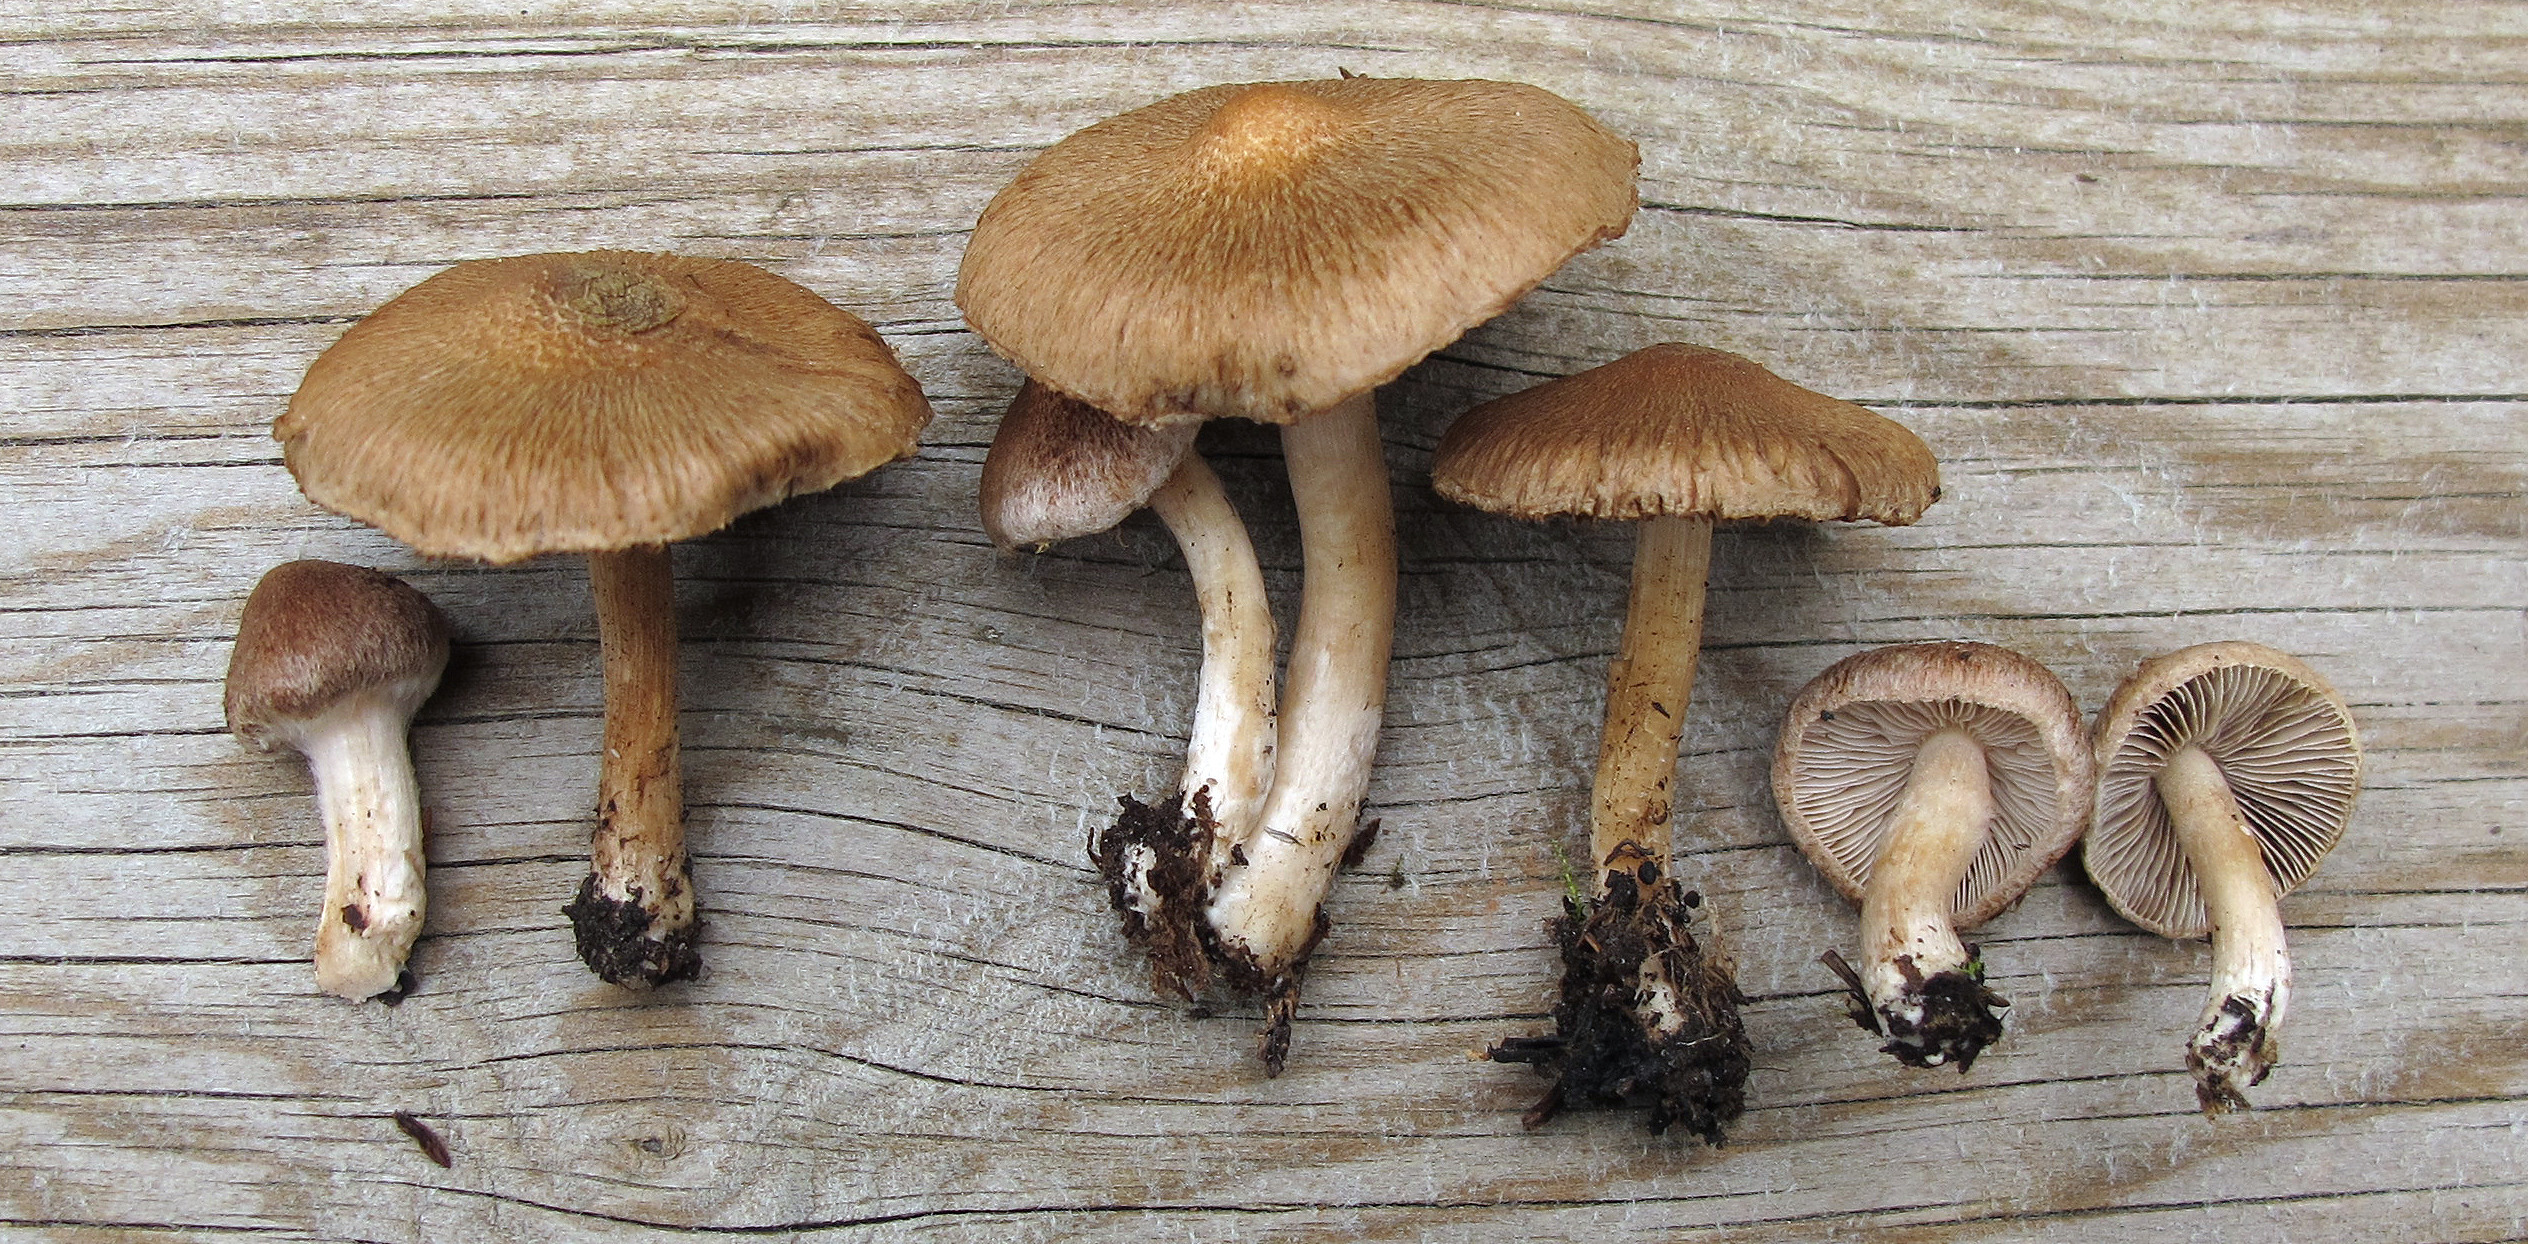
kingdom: Fungi
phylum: Basidiomycota
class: Agaricomycetes
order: Agaricales
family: Inocybaceae
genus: Inocybe
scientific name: Inocybe flocculosa
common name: Fleecy fibrecap
